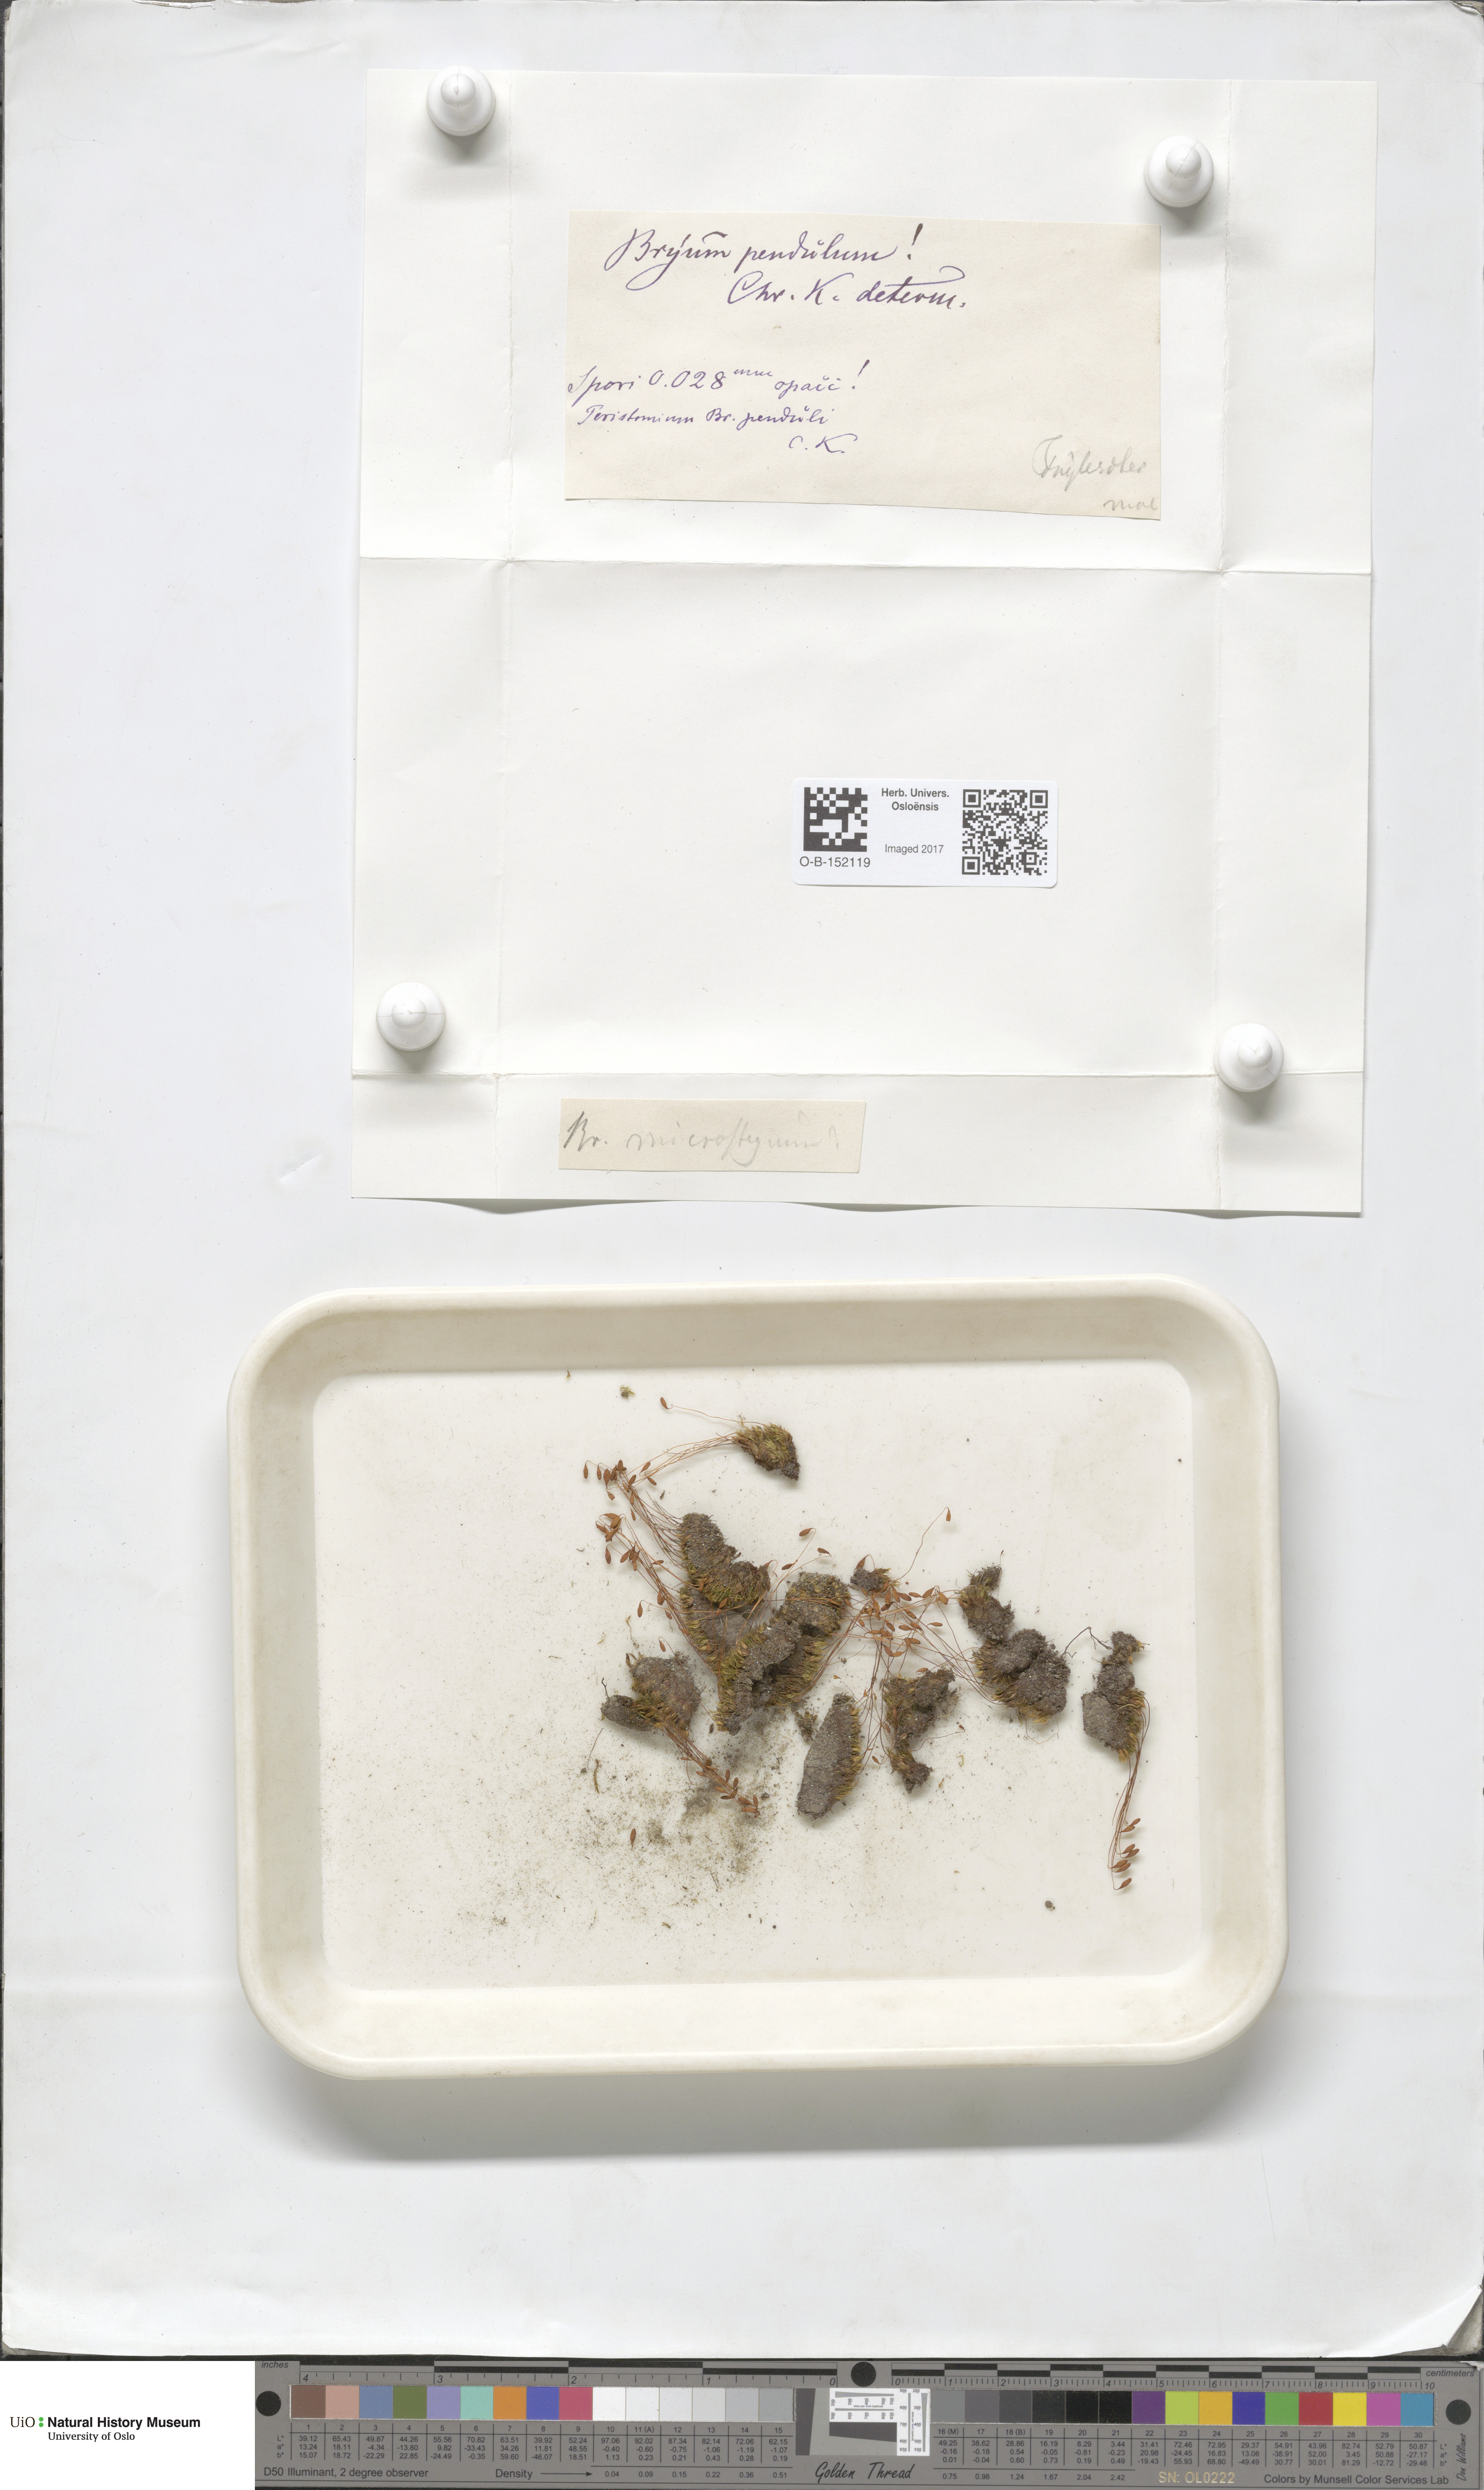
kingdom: Plantae
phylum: Bryophyta
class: Bryopsida
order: Bryales
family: Bryaceae
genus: Ptychostomum
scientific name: Ptychostomum compactum
